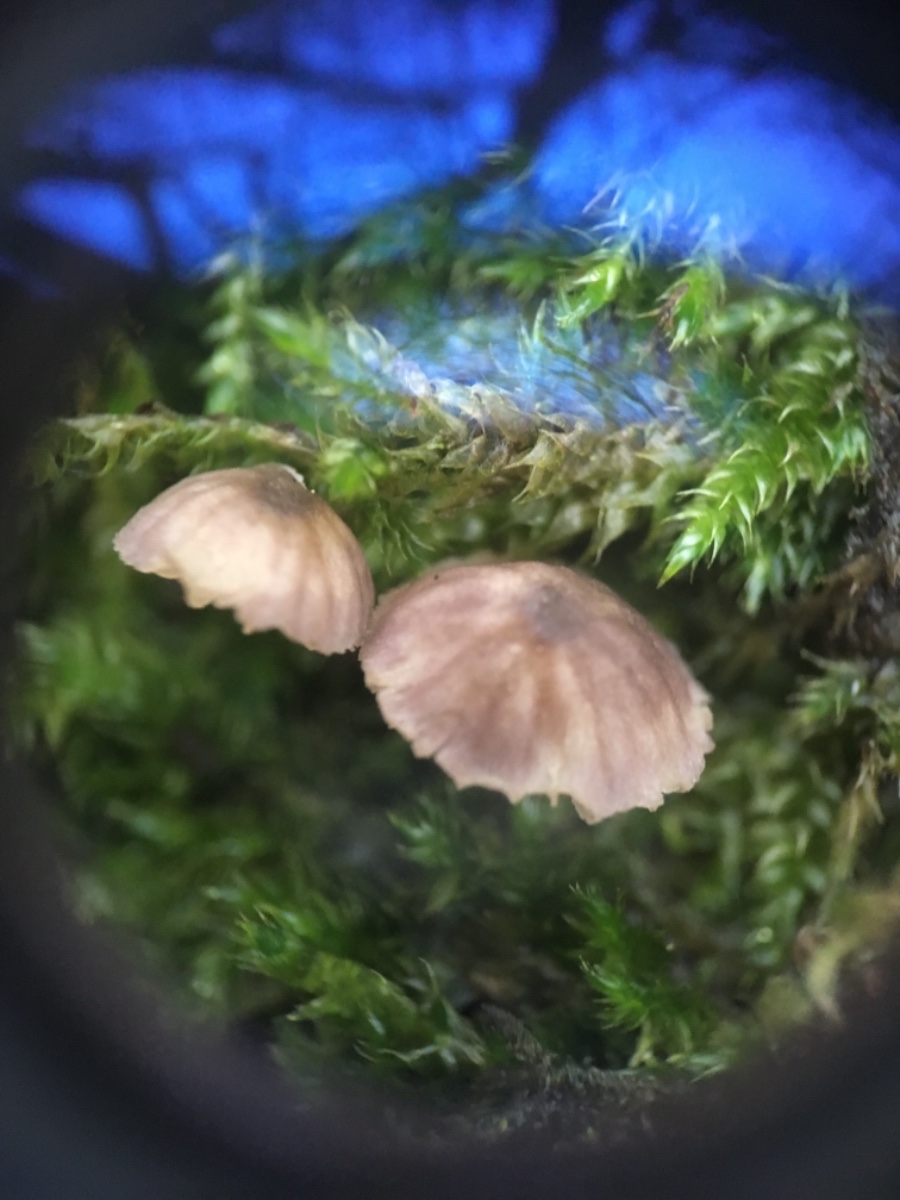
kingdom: Fungi
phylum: Basidiomycota
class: Agaricomycetes
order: Agaricales
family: Mycenaceae
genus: Mycena
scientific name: Mycena
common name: huesvamp
